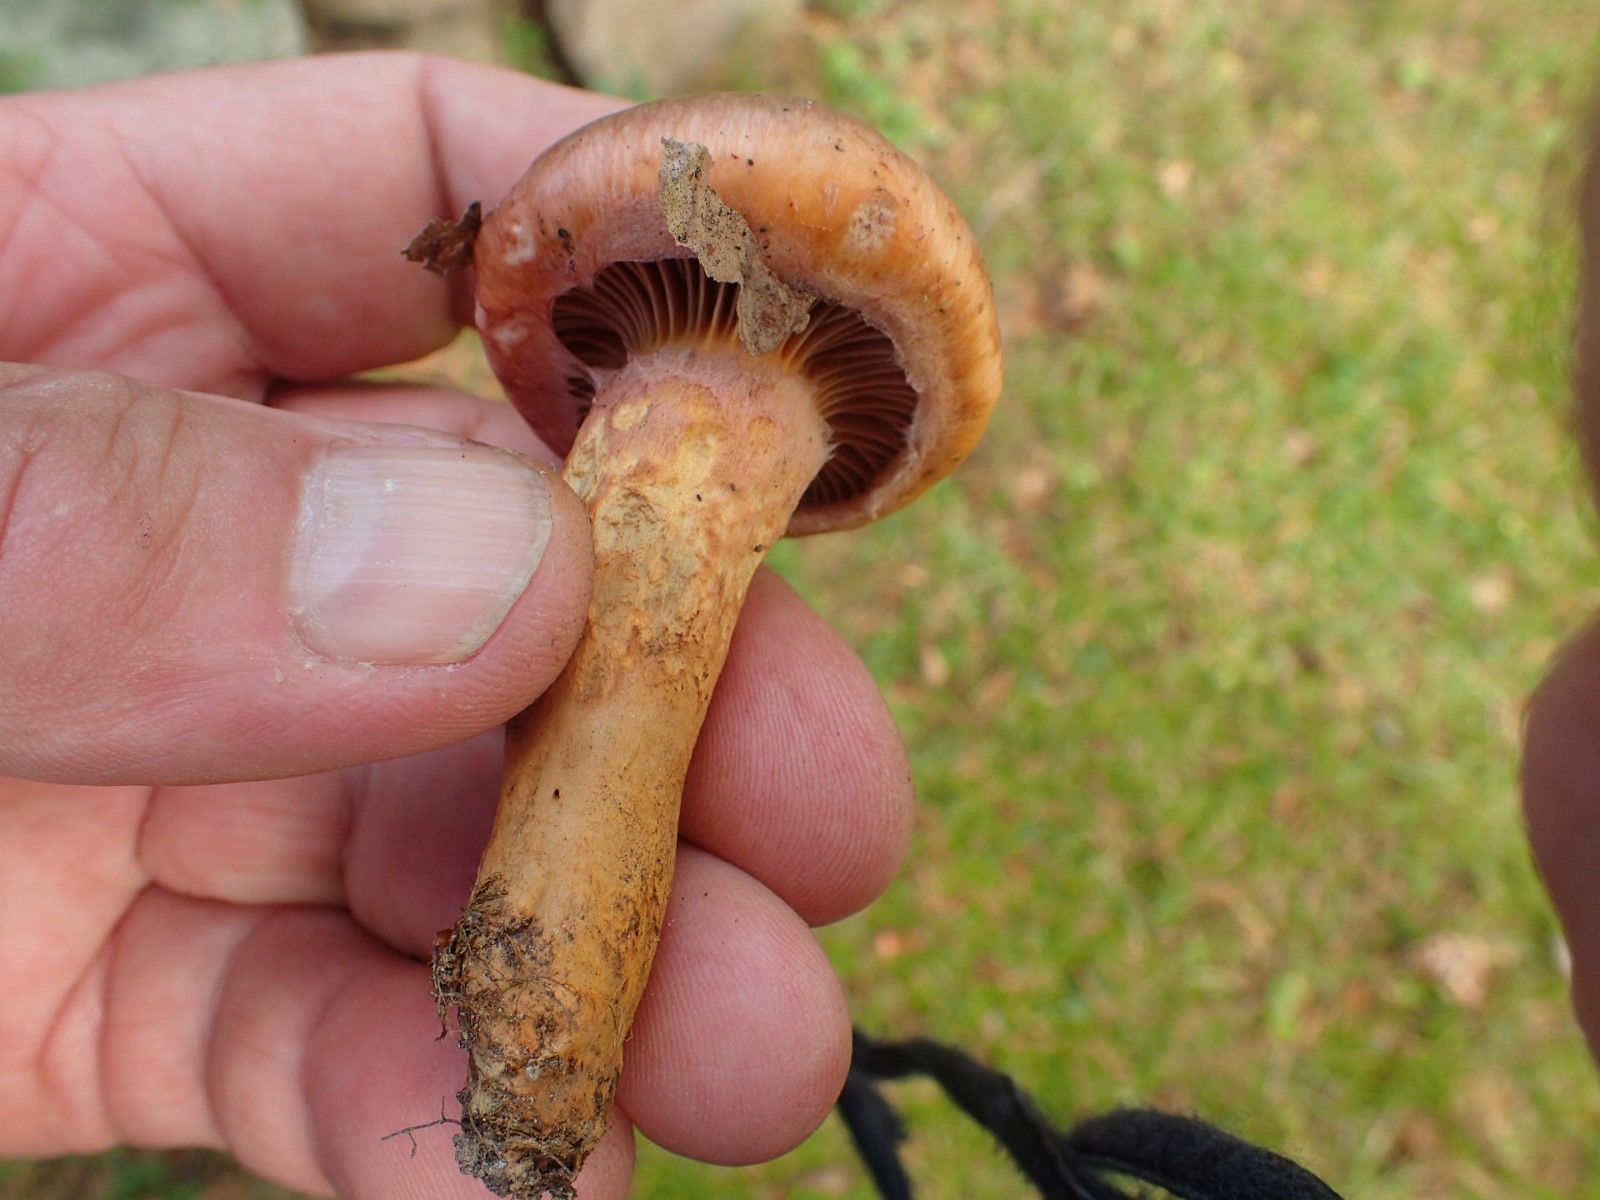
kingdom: Fungi
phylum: Basidiomycota
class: Agaricomycetes
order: Boletales
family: Gomphidiaceae
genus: Chroogomphus
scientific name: Chroogomphus rutilus
